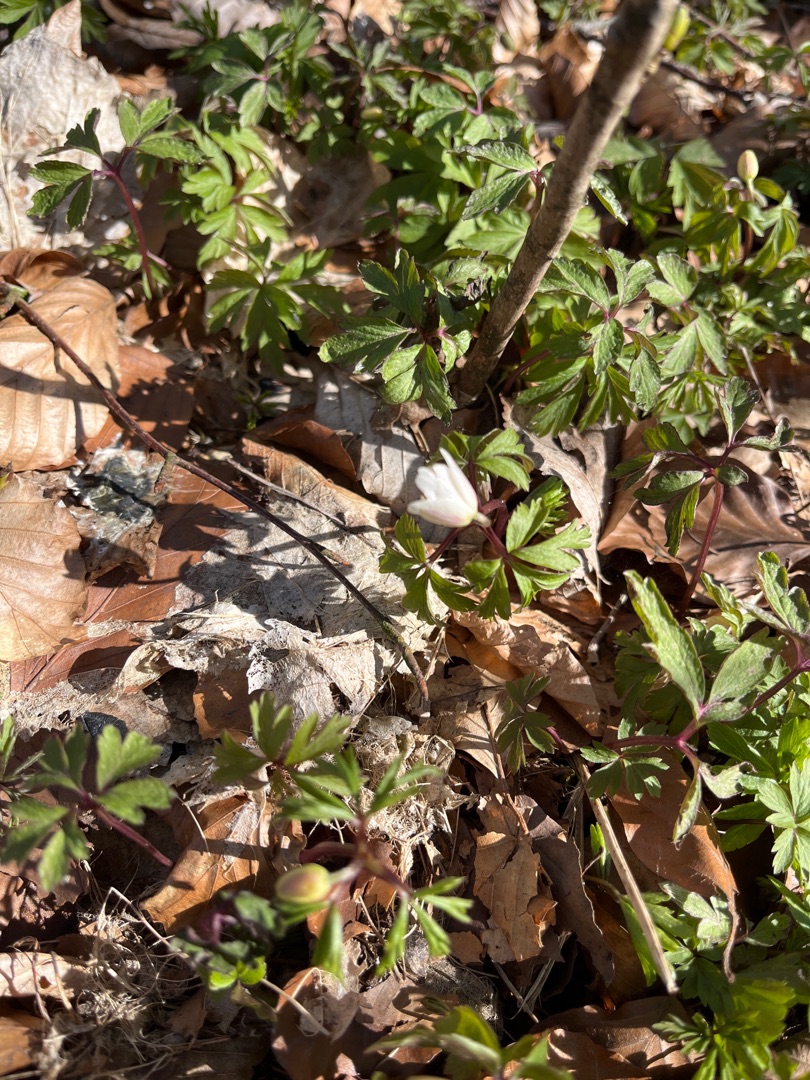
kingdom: Plantae
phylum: Tracheophyta
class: Magnoliopsida
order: Ranunculales
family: Ranunculaceae
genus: Anemone
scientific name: Anemone nemorosa
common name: Hvid anemone
